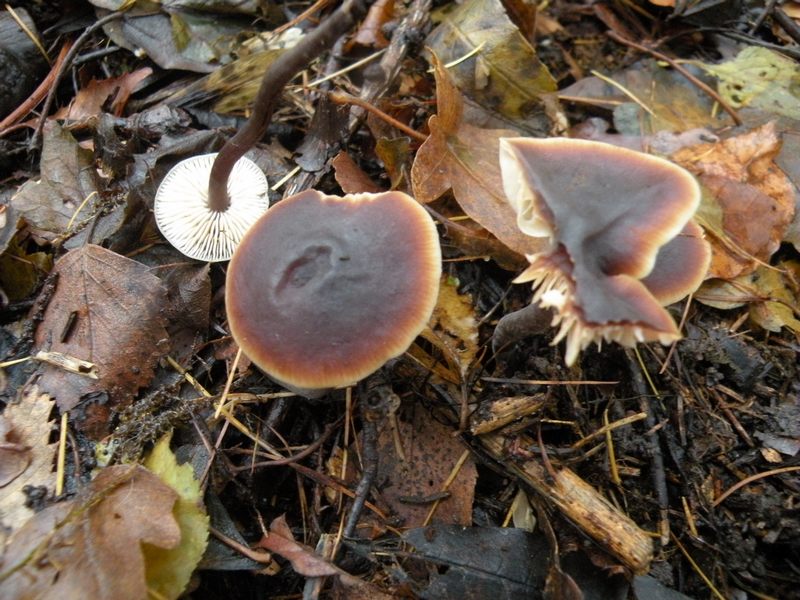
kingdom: Fungi
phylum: Basidiomycota
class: Agaricomycetes
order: Agaricales
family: Macrocystidiaceae
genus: Macrocystidia
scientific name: Macrocystidia cucumis
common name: agurkehat
